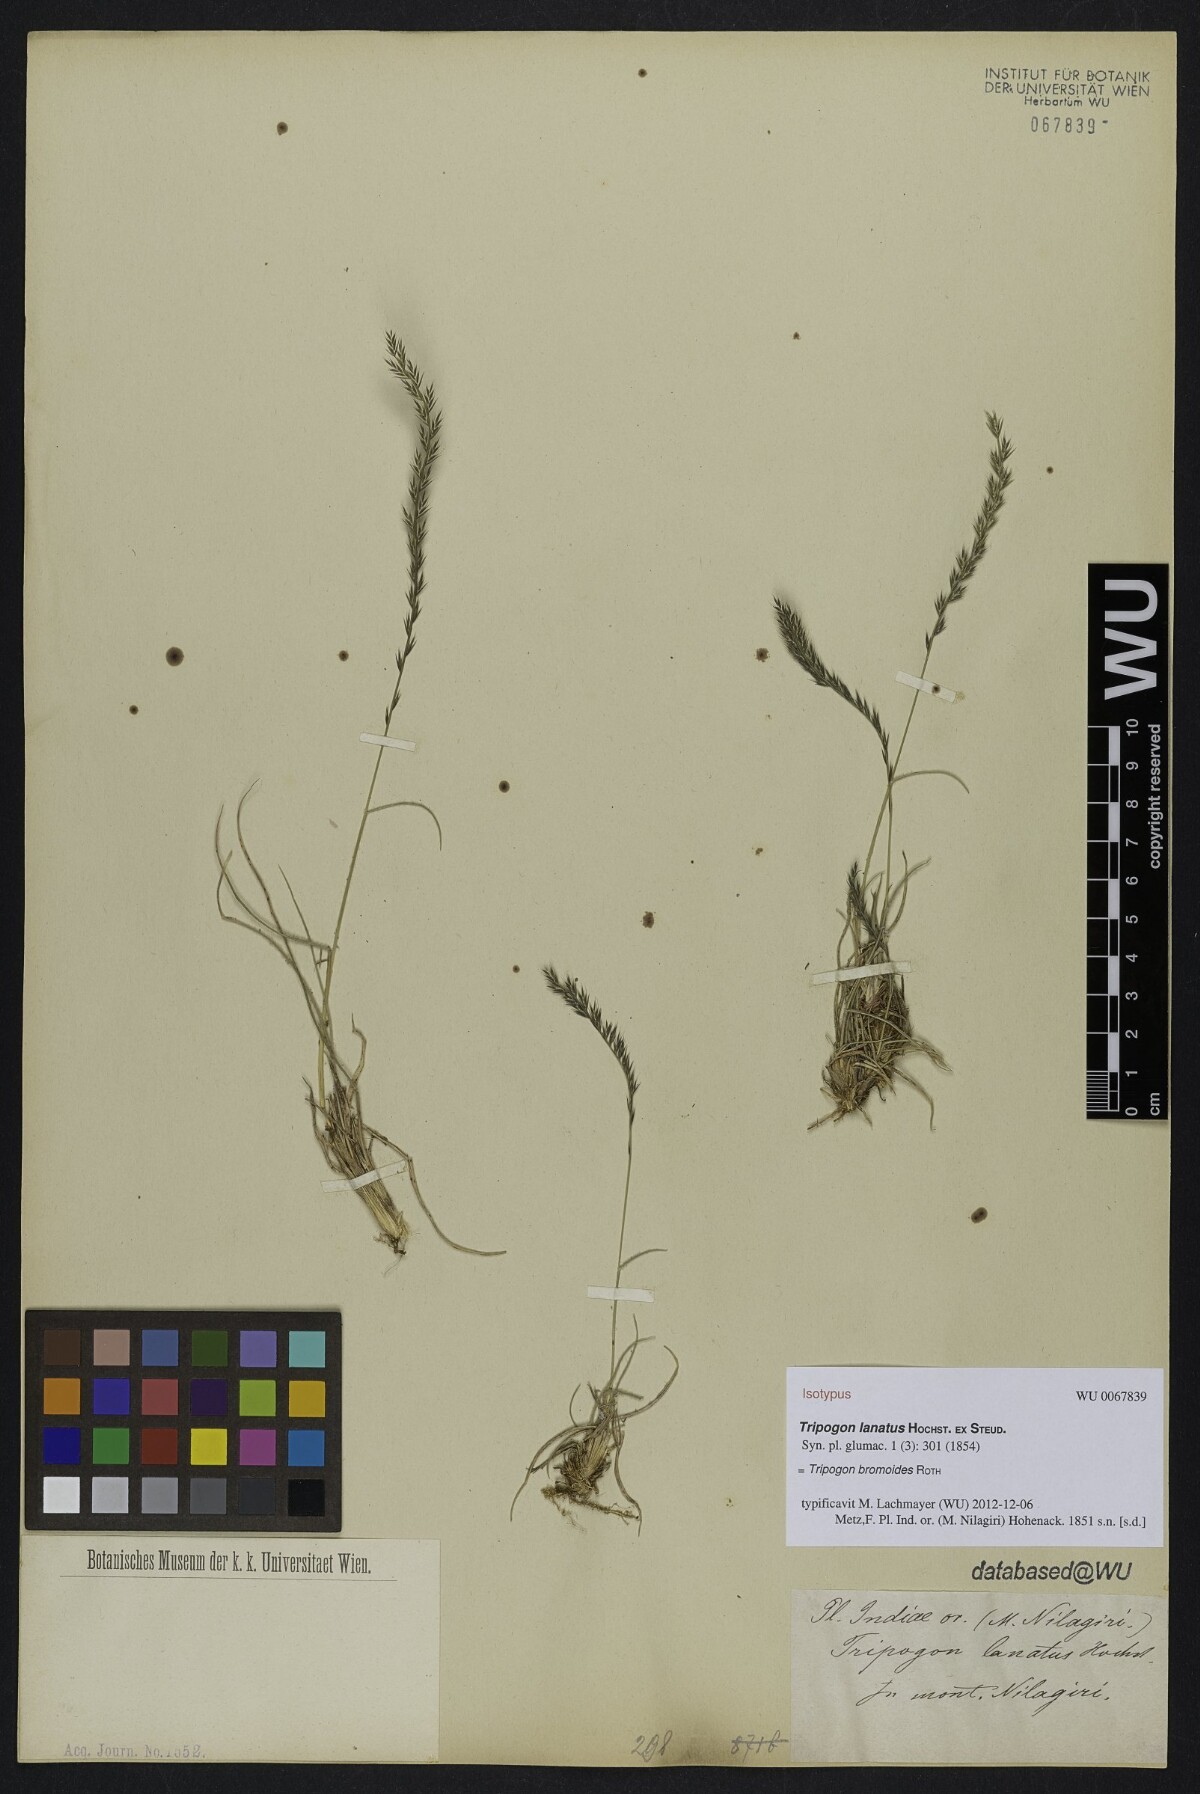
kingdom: Plantae
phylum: Tracheophyta
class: Liliopsida
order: Poales
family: Poaceae
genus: Tripogon
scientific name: Tripogon bromoides
